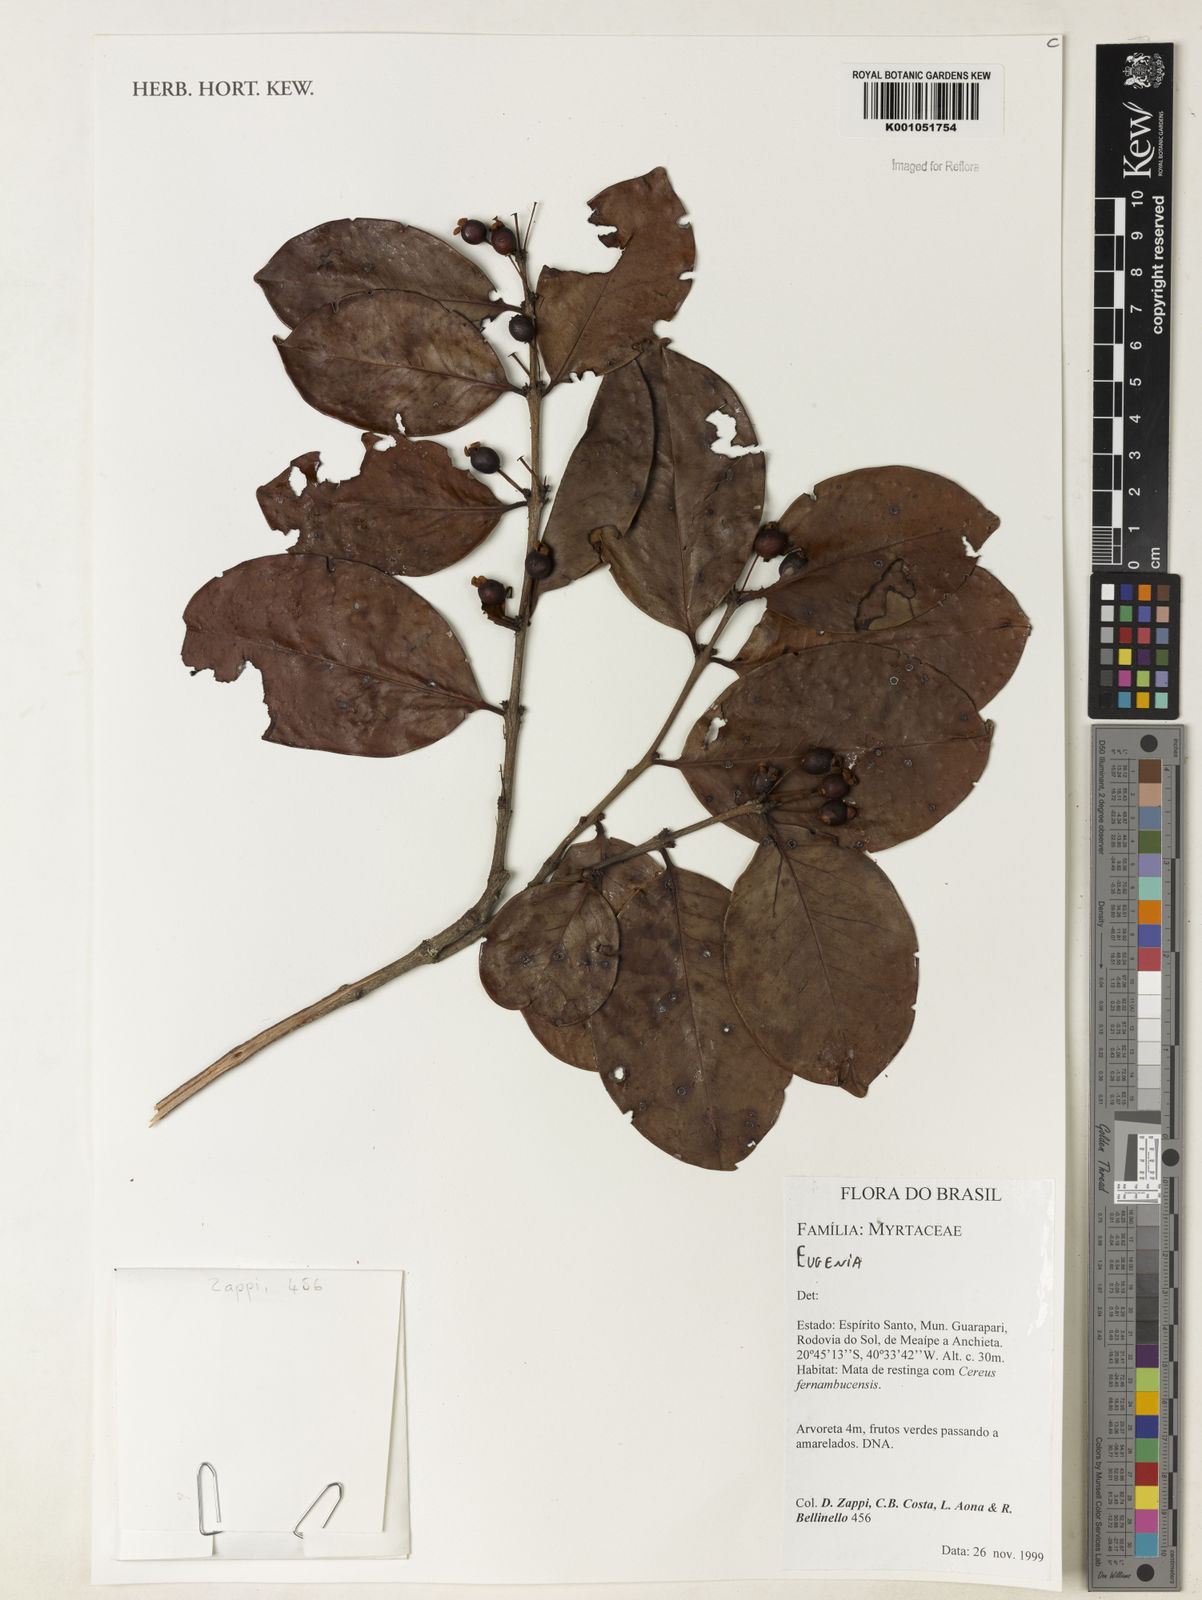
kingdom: Plantae
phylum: Tracheophyta
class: Magnoliopsida
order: Myrtales
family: Myrtaceae
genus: Eugenia
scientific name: Eugenia punicifolia
